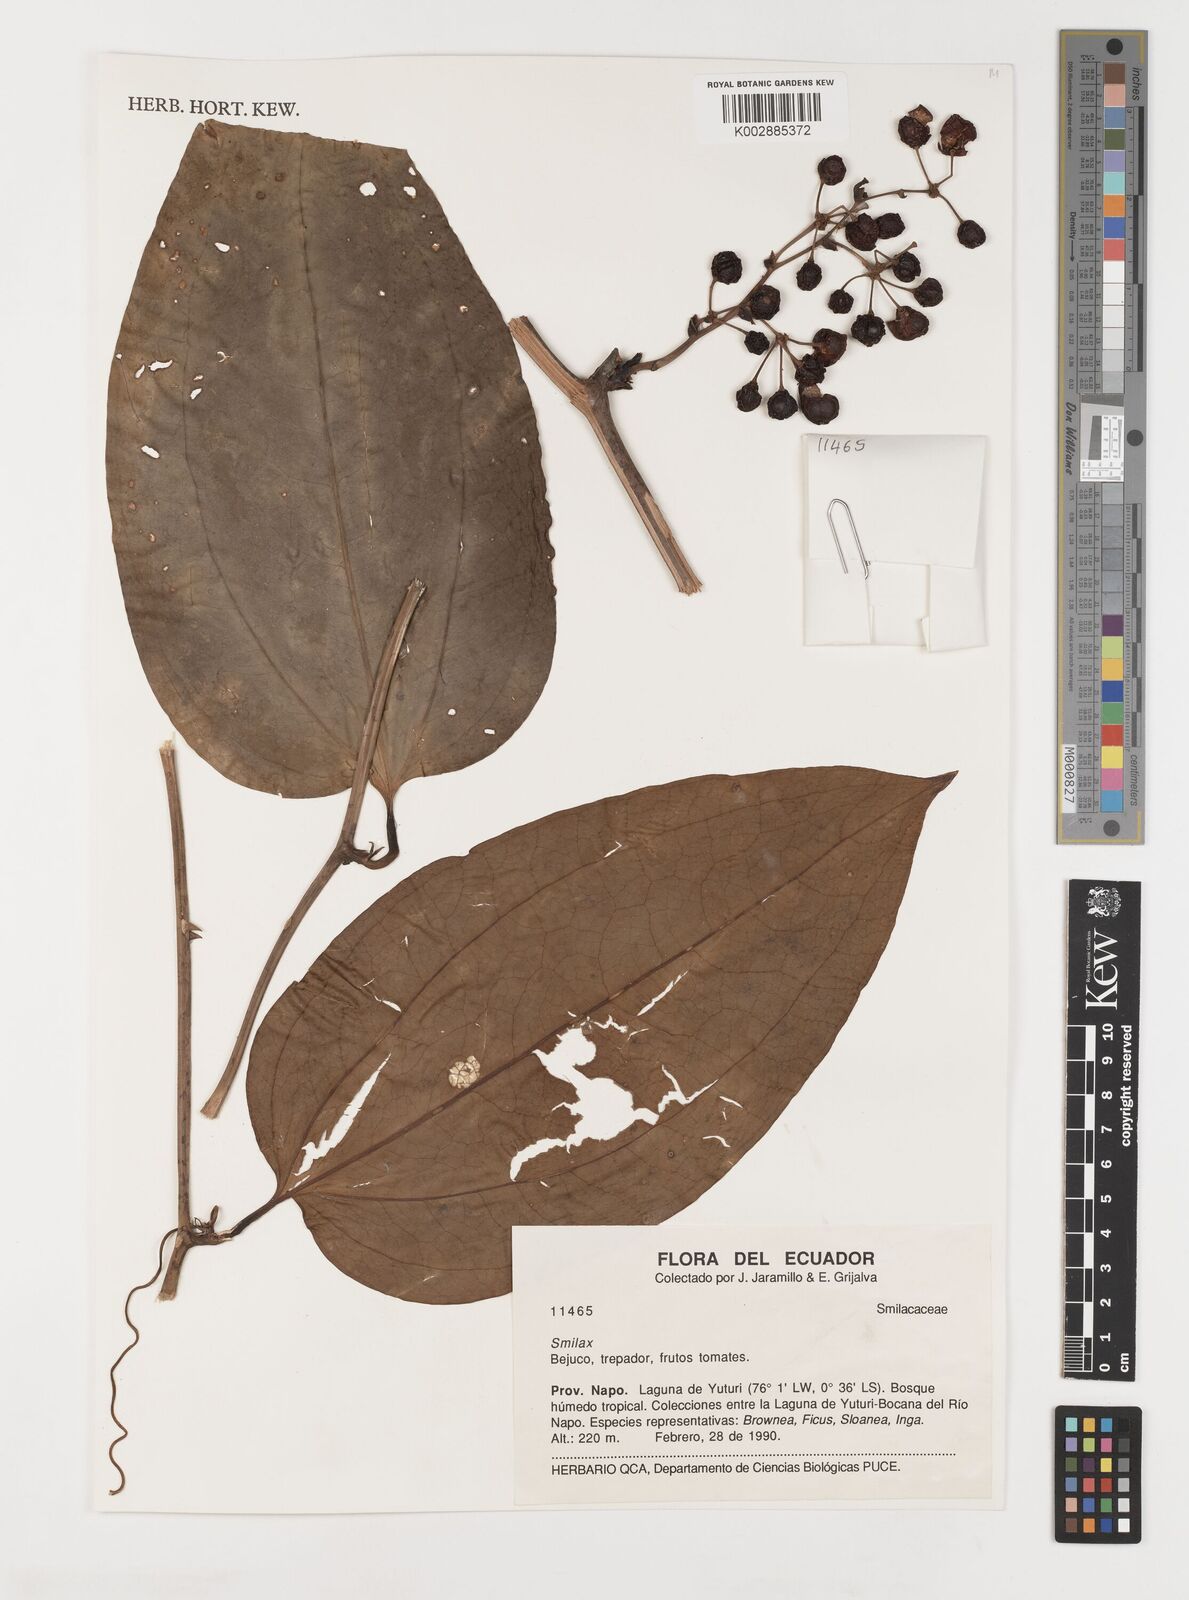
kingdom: Plantae
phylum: Tracheophyta
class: Liliopsida
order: Liliales
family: Smilacaceae
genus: Smilax
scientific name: Smilax
